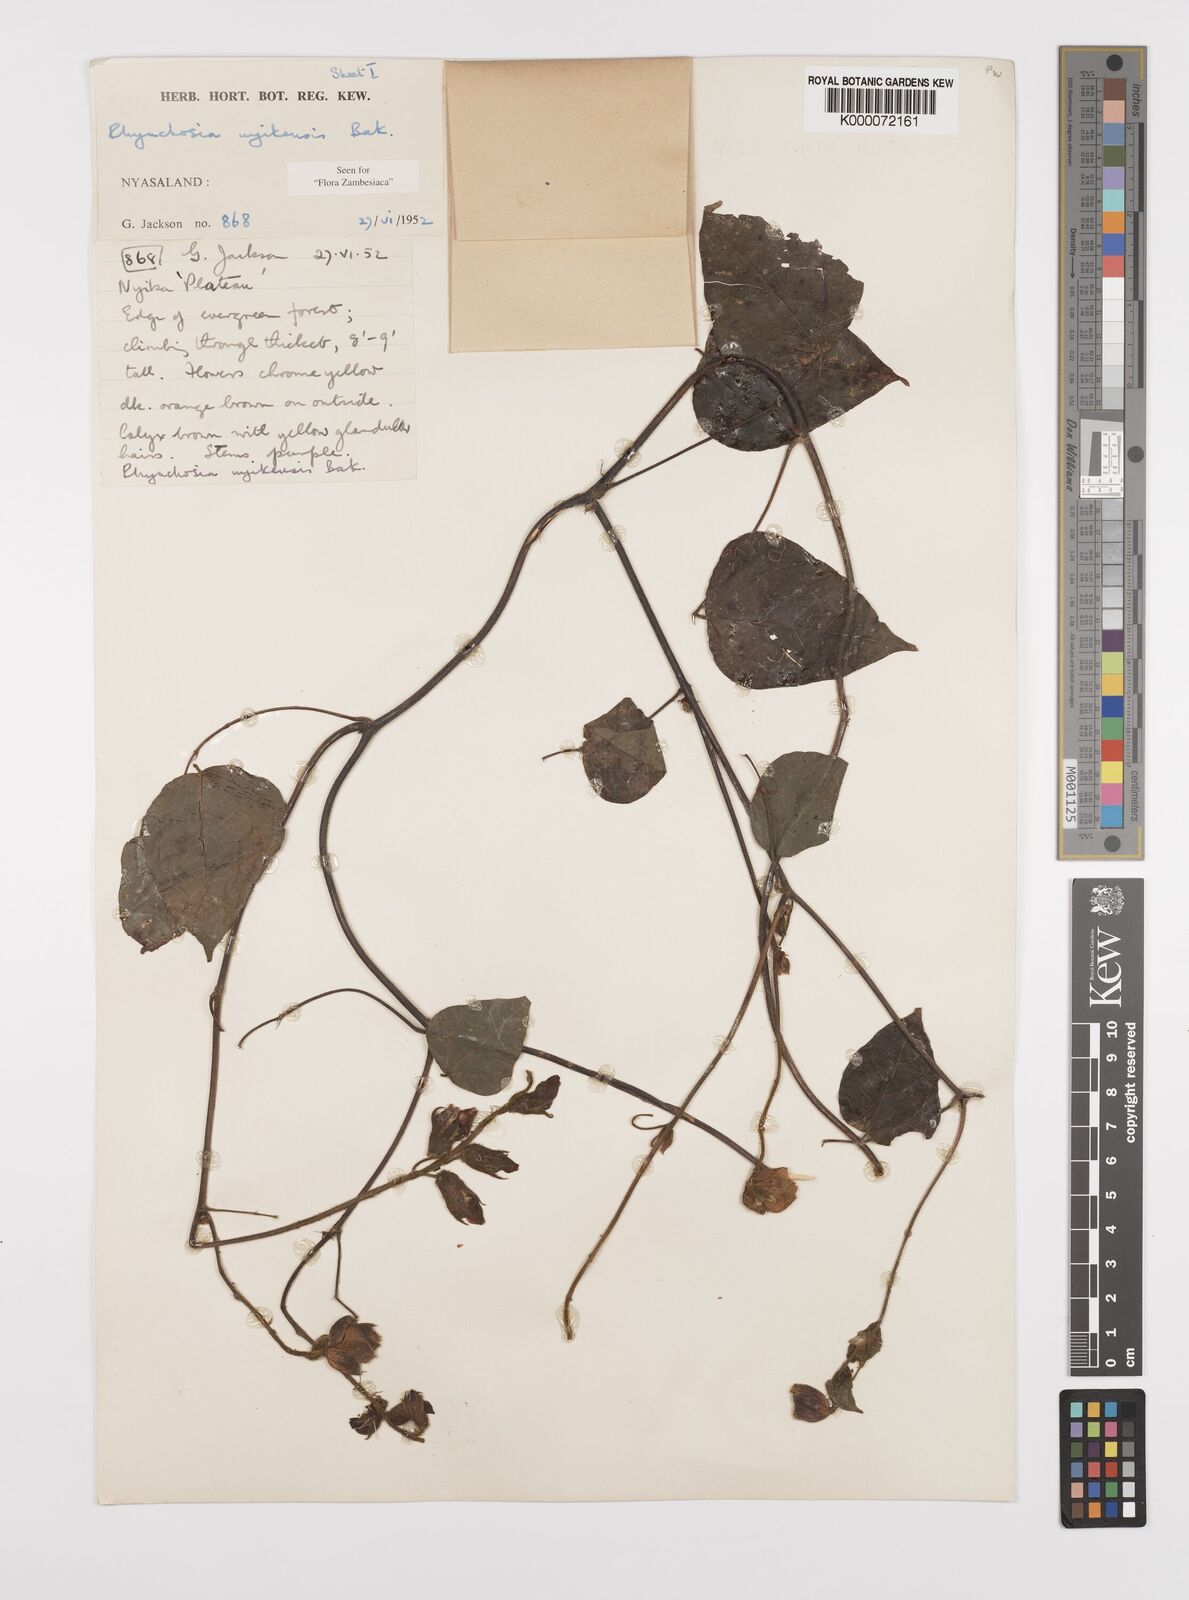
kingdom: Plantae
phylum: Tracheophyta
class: Magnoliopsida
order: Fabales
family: Fabaceae
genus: Rhynchosia
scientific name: Rhynchosia nyikensis
